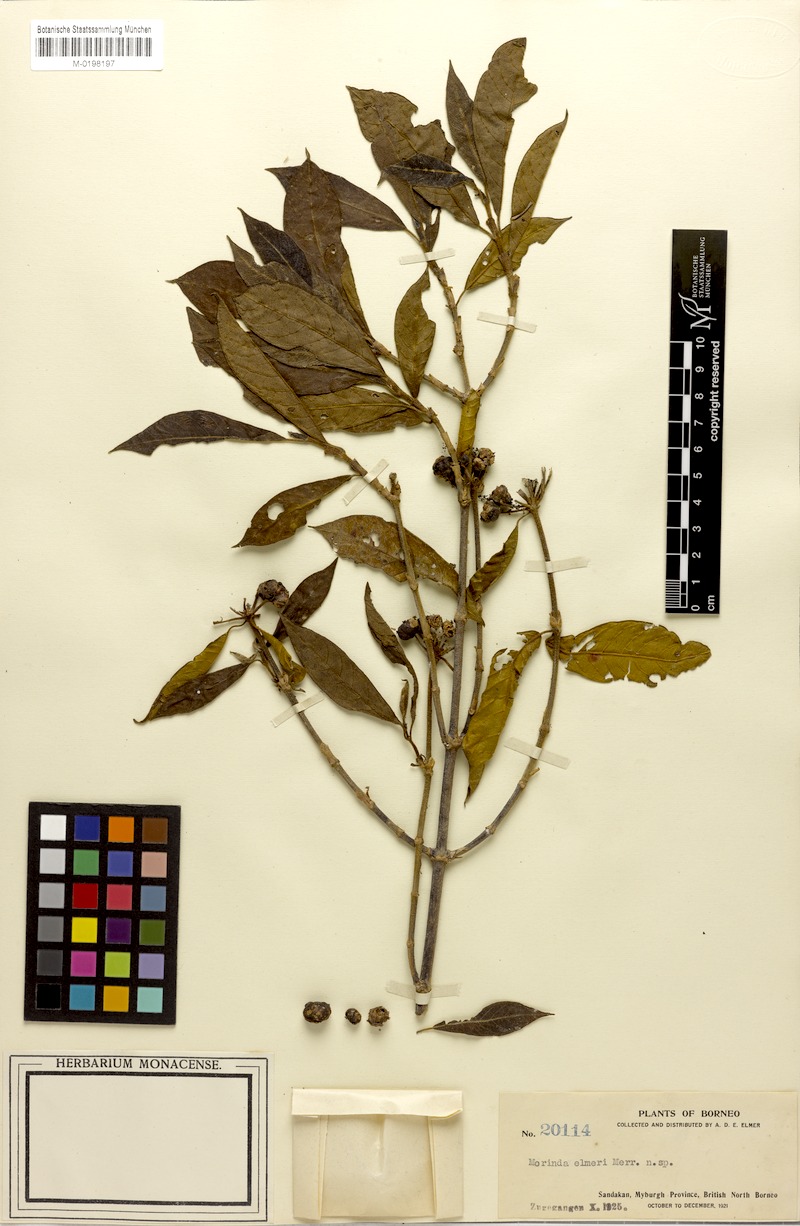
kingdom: Plantae
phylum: Tracheophyta
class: Magnoliopsida
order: Gentianales
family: Rubiaceae
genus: Gynochthodes
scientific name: Gynochthodes elmeri
